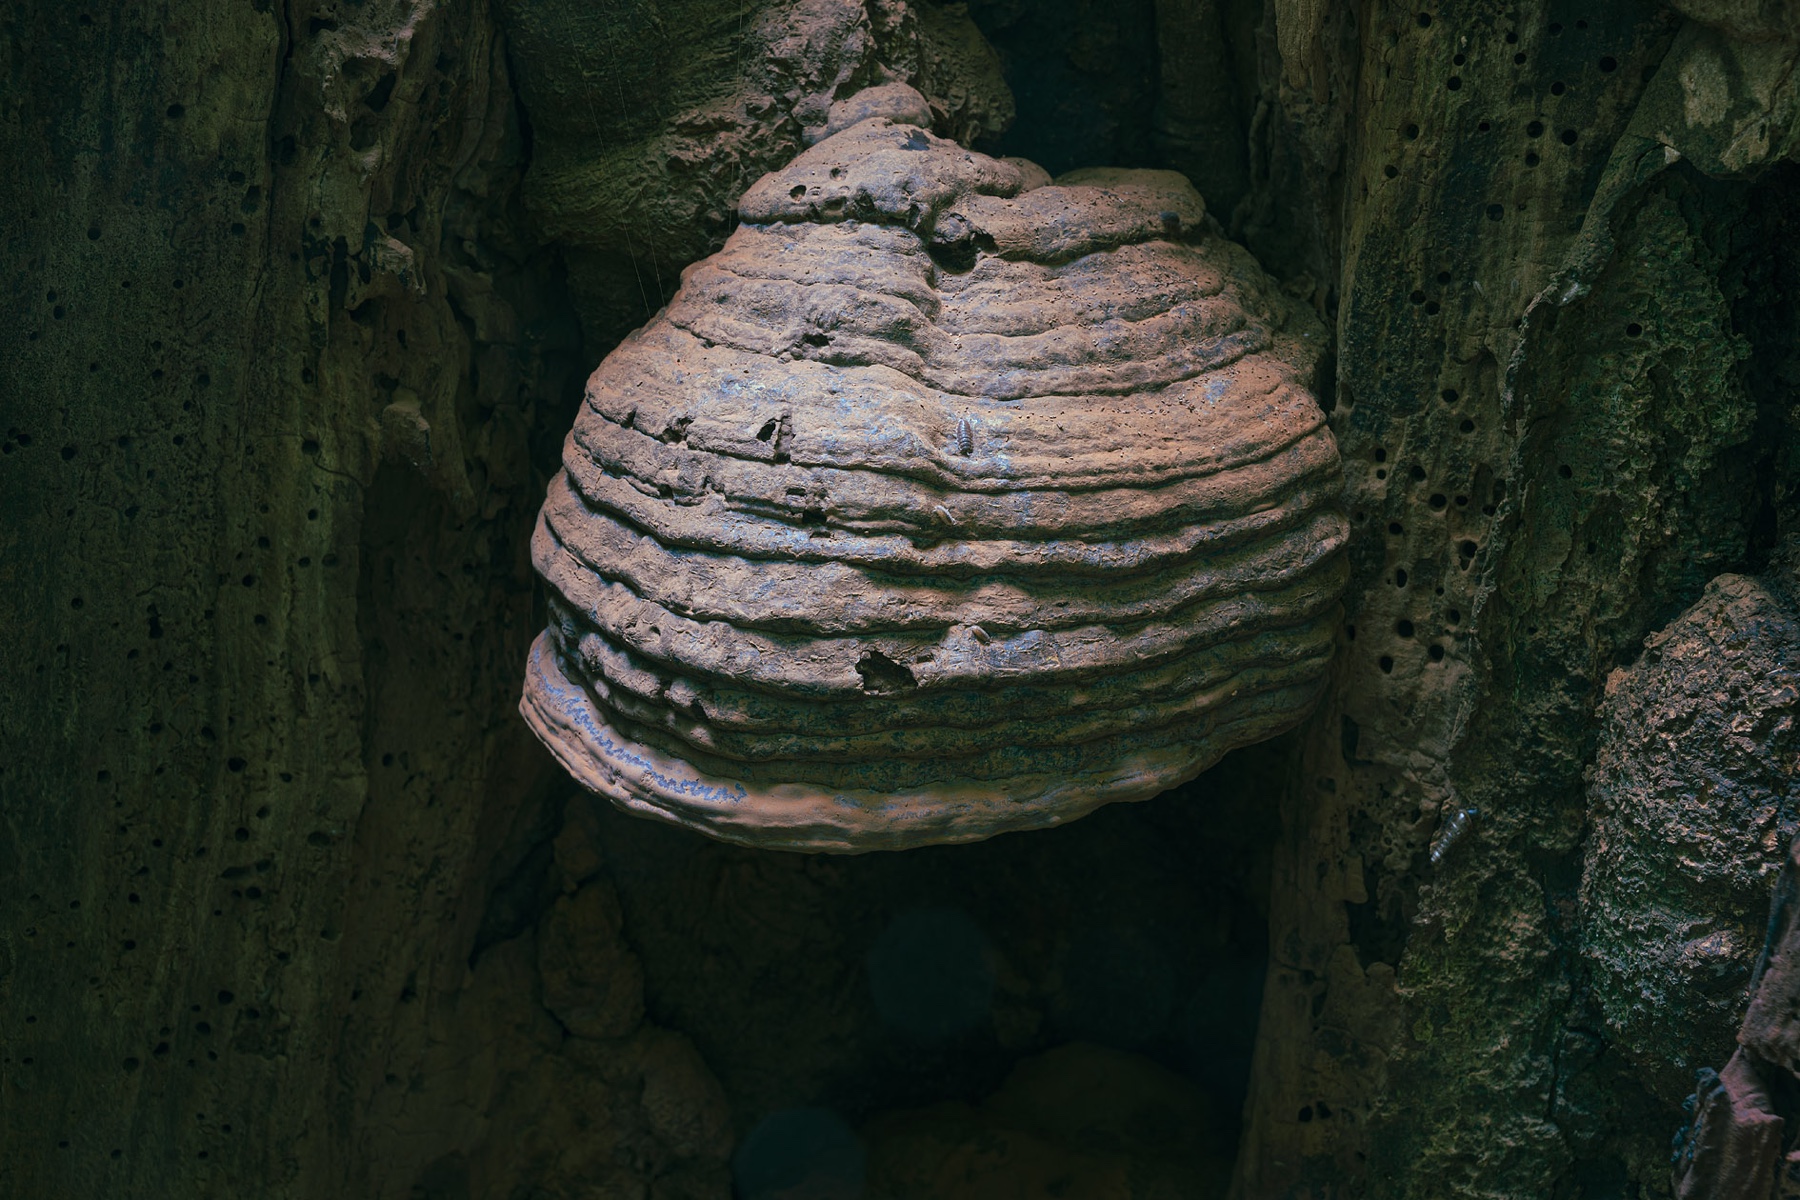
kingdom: Fungi
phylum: Basidiomycota
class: Agaricomycetes
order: Polyporales
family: Polyporaceae
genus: Ganoderma
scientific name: Ganoderma pfeifferi
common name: kobberrød lakporesvamp
